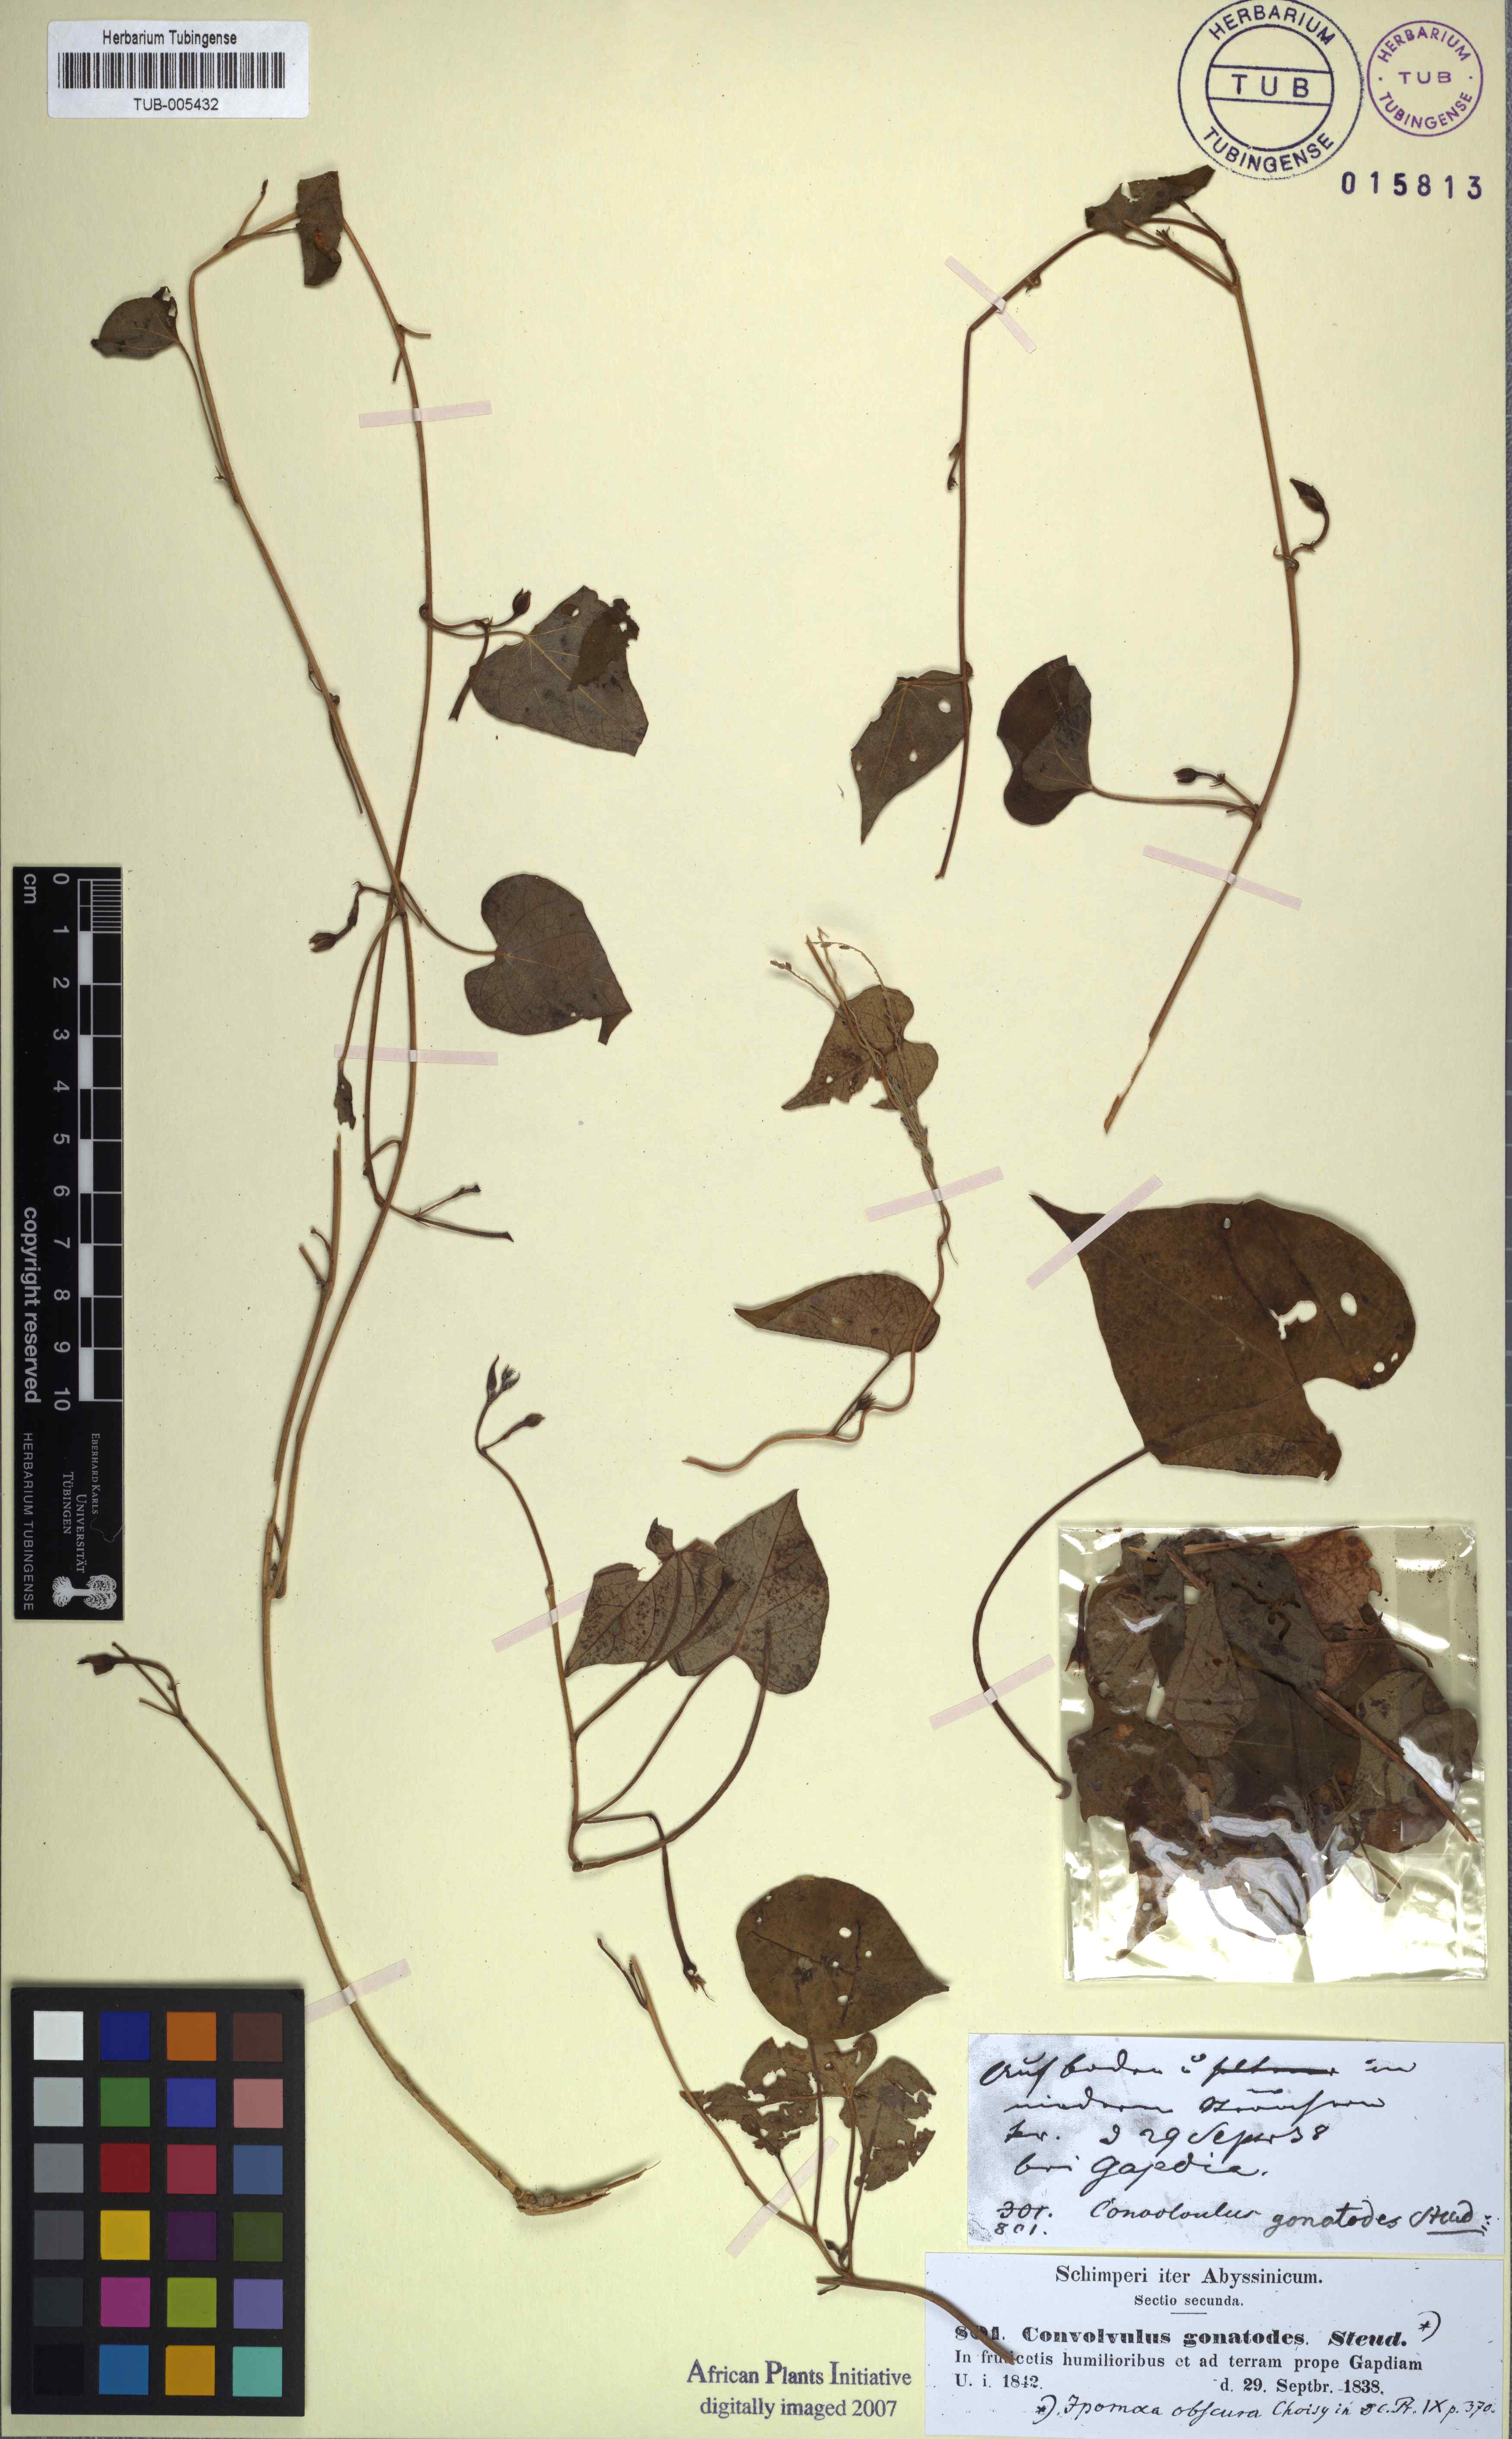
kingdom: Plantae
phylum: Tracheophyta
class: Magnoliopsida
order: Solanales
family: Convolvulaceae
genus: Ipomoea
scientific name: Ipomoea obscura
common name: Obscure morning-glory
